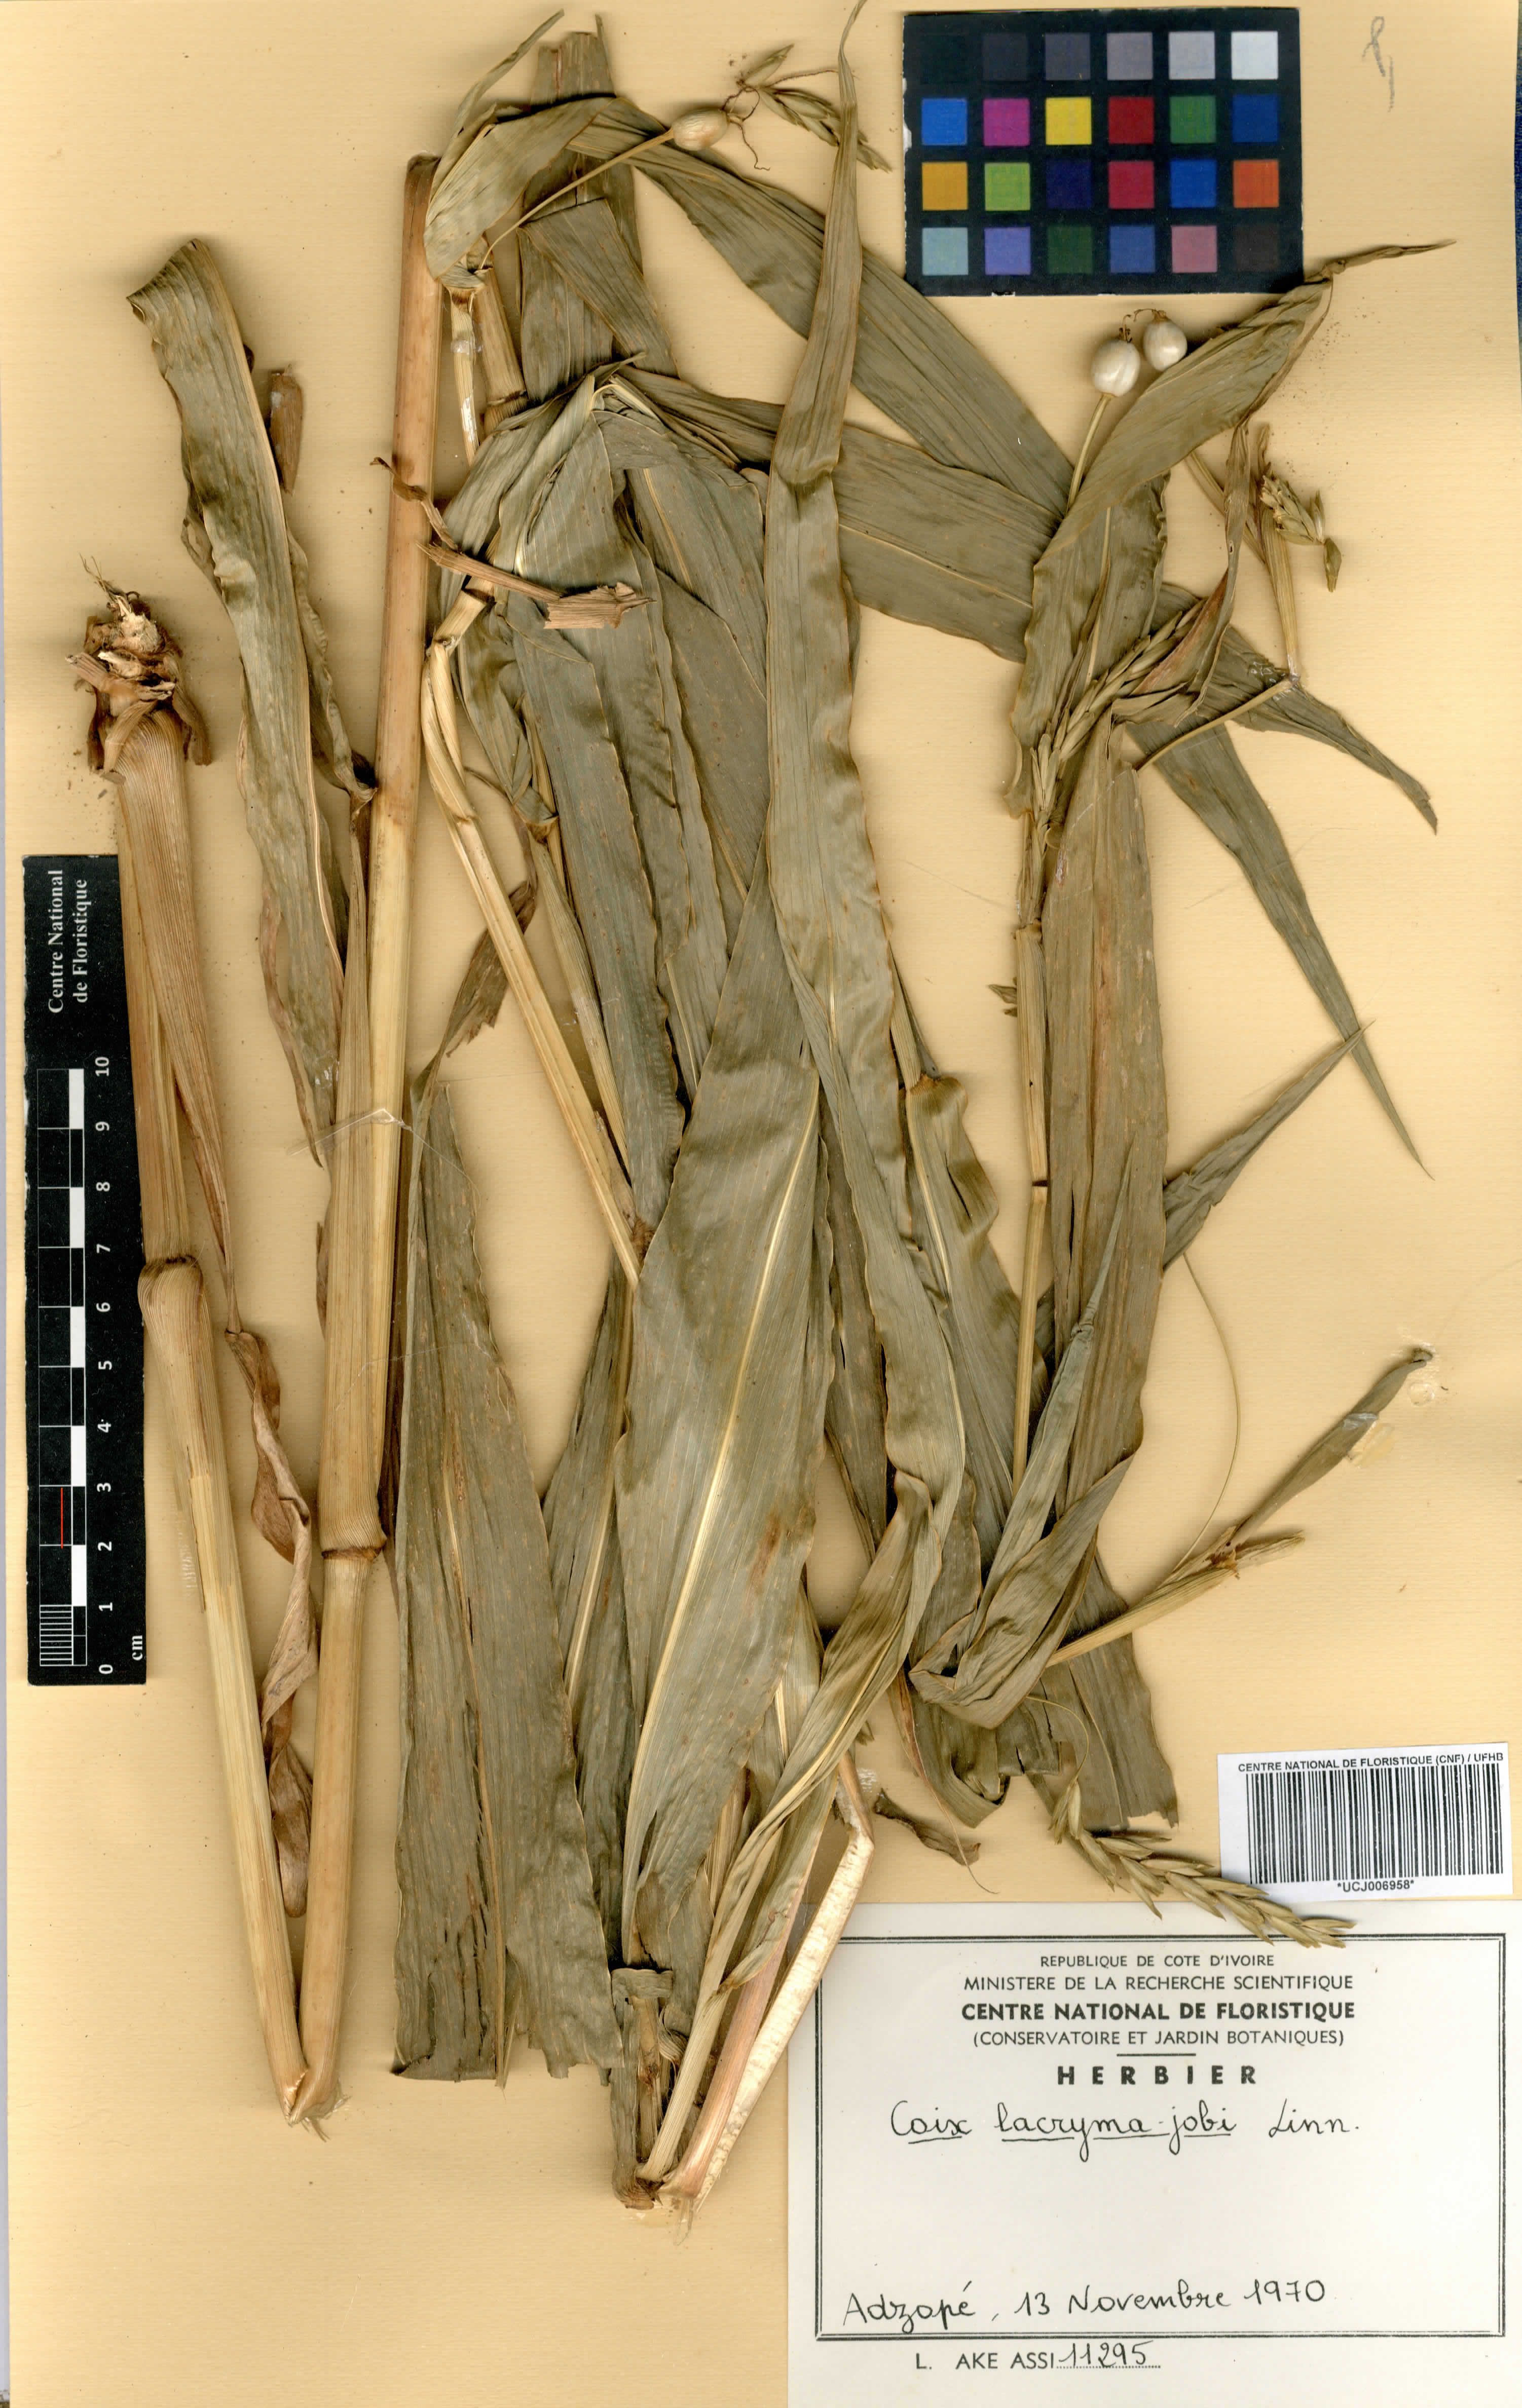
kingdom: Plantae
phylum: Tracheophyta
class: Liliopsida
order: Poales
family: Poaceae
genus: Coix
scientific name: Coix lacryma-jobi
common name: Job's tears
